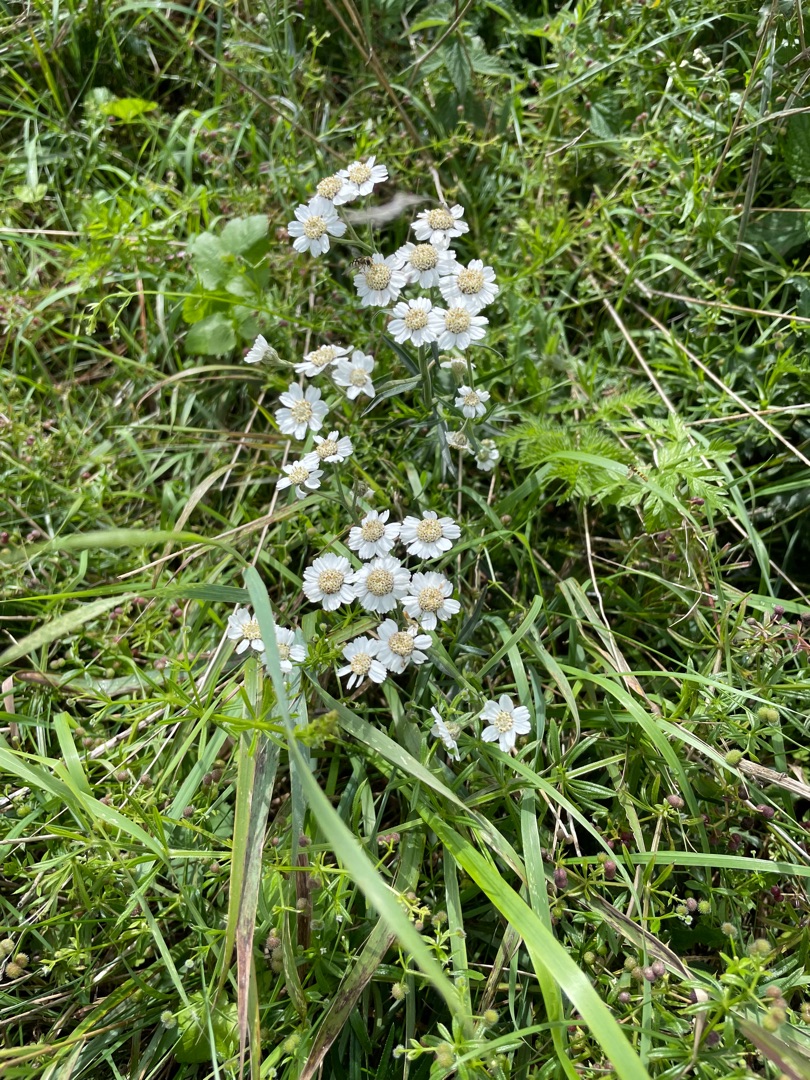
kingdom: Plantae
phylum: Tracheophyta
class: Magnoliopsida
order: Asterales
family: Asteraceae
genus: Achillea
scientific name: Achillea ptarmica
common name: Nyse-røllike
